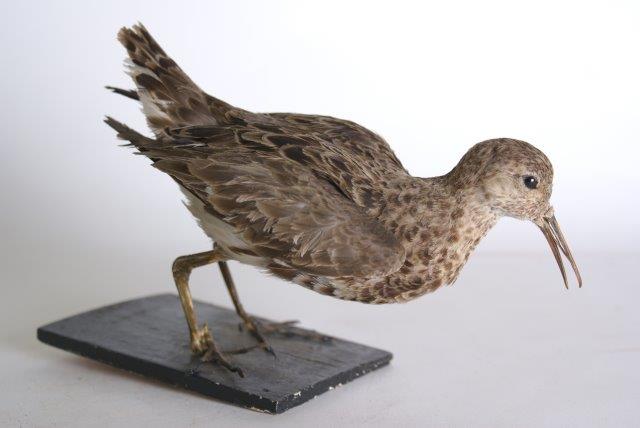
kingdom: Animalia
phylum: Chordata
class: Aves
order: Charadriiformes
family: Scolopacidae
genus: Calidris
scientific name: Calidris pugnax
